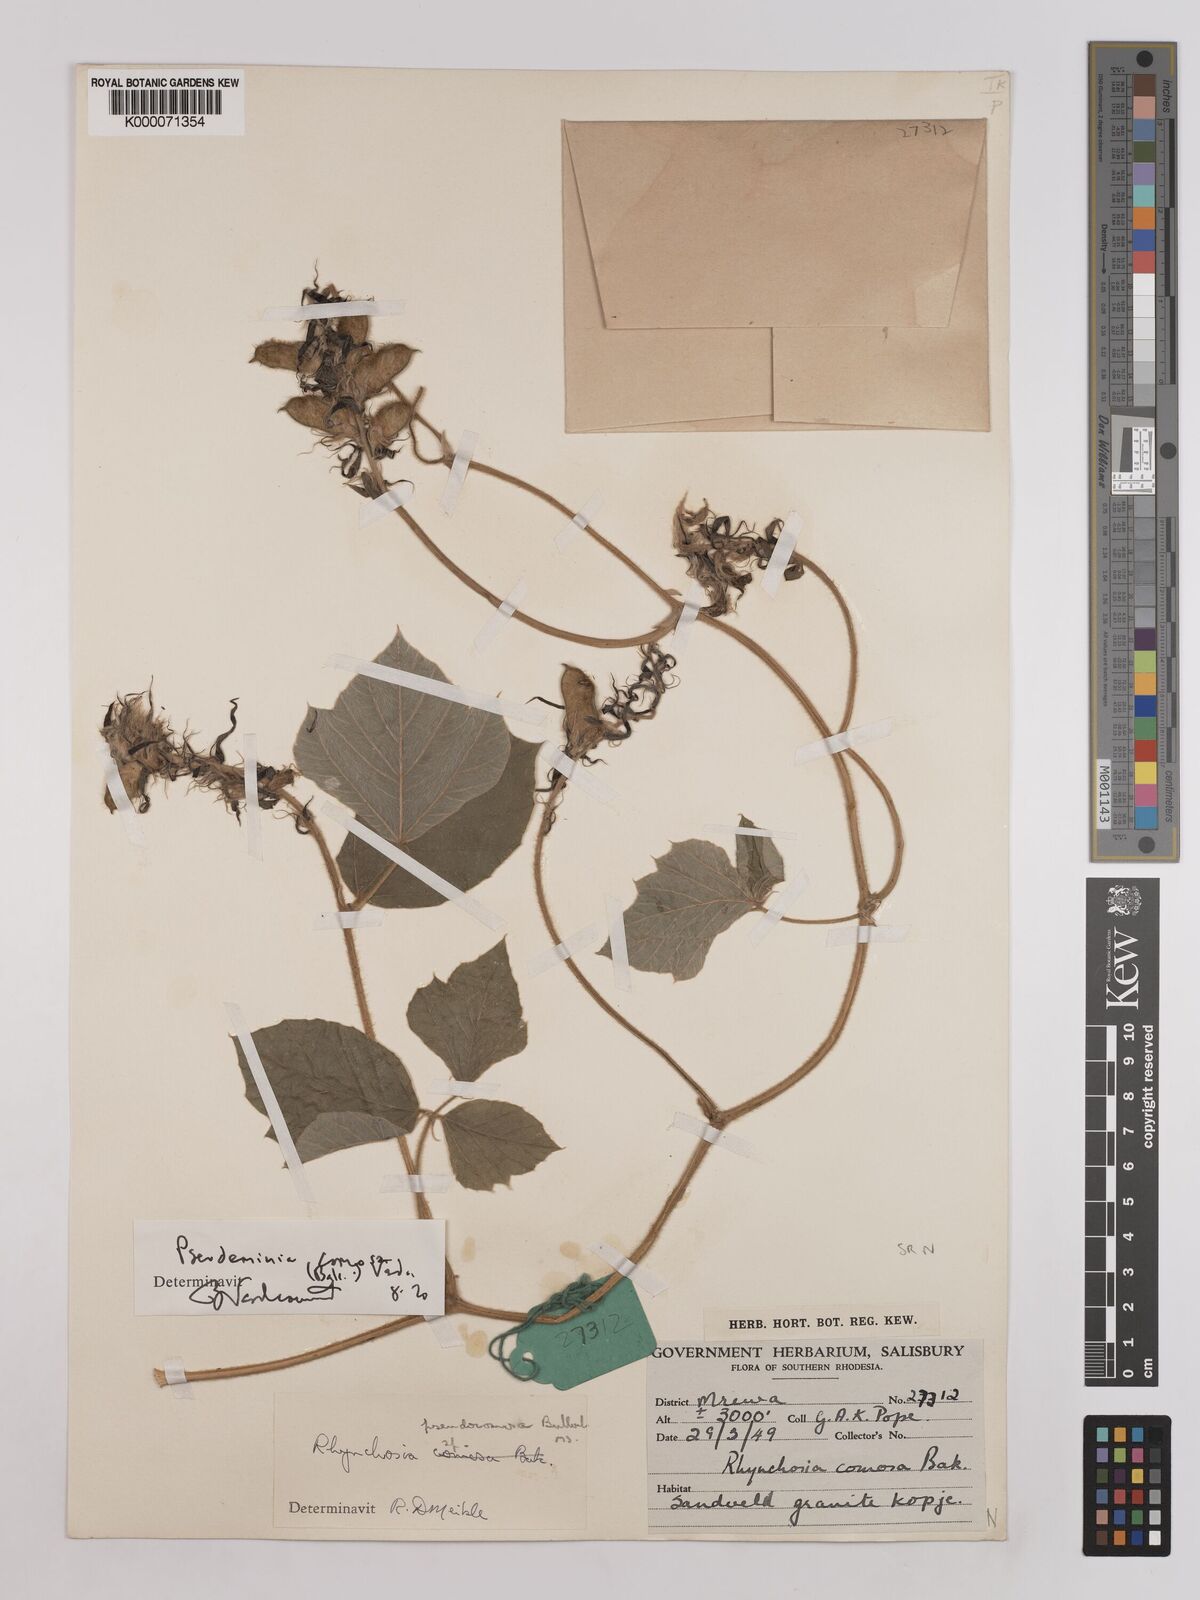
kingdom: Plantae
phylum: Tracheophyta
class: Magnoliopsida
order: Fabales
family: Fabaceae
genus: Pseudeminia
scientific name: Pseudeminia comosa
